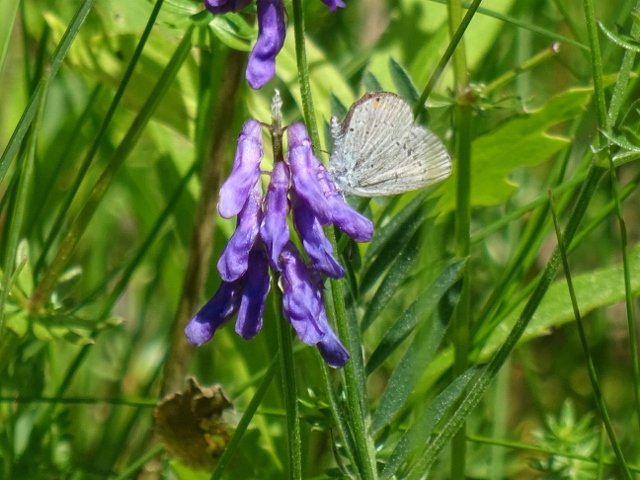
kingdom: Animalia
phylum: Arthropoda
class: Insecta
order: Lepidoptera
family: Lycaenidae
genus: Elkalyce
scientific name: Elkalyce comyntas
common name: Eastern Tailed-Blue
